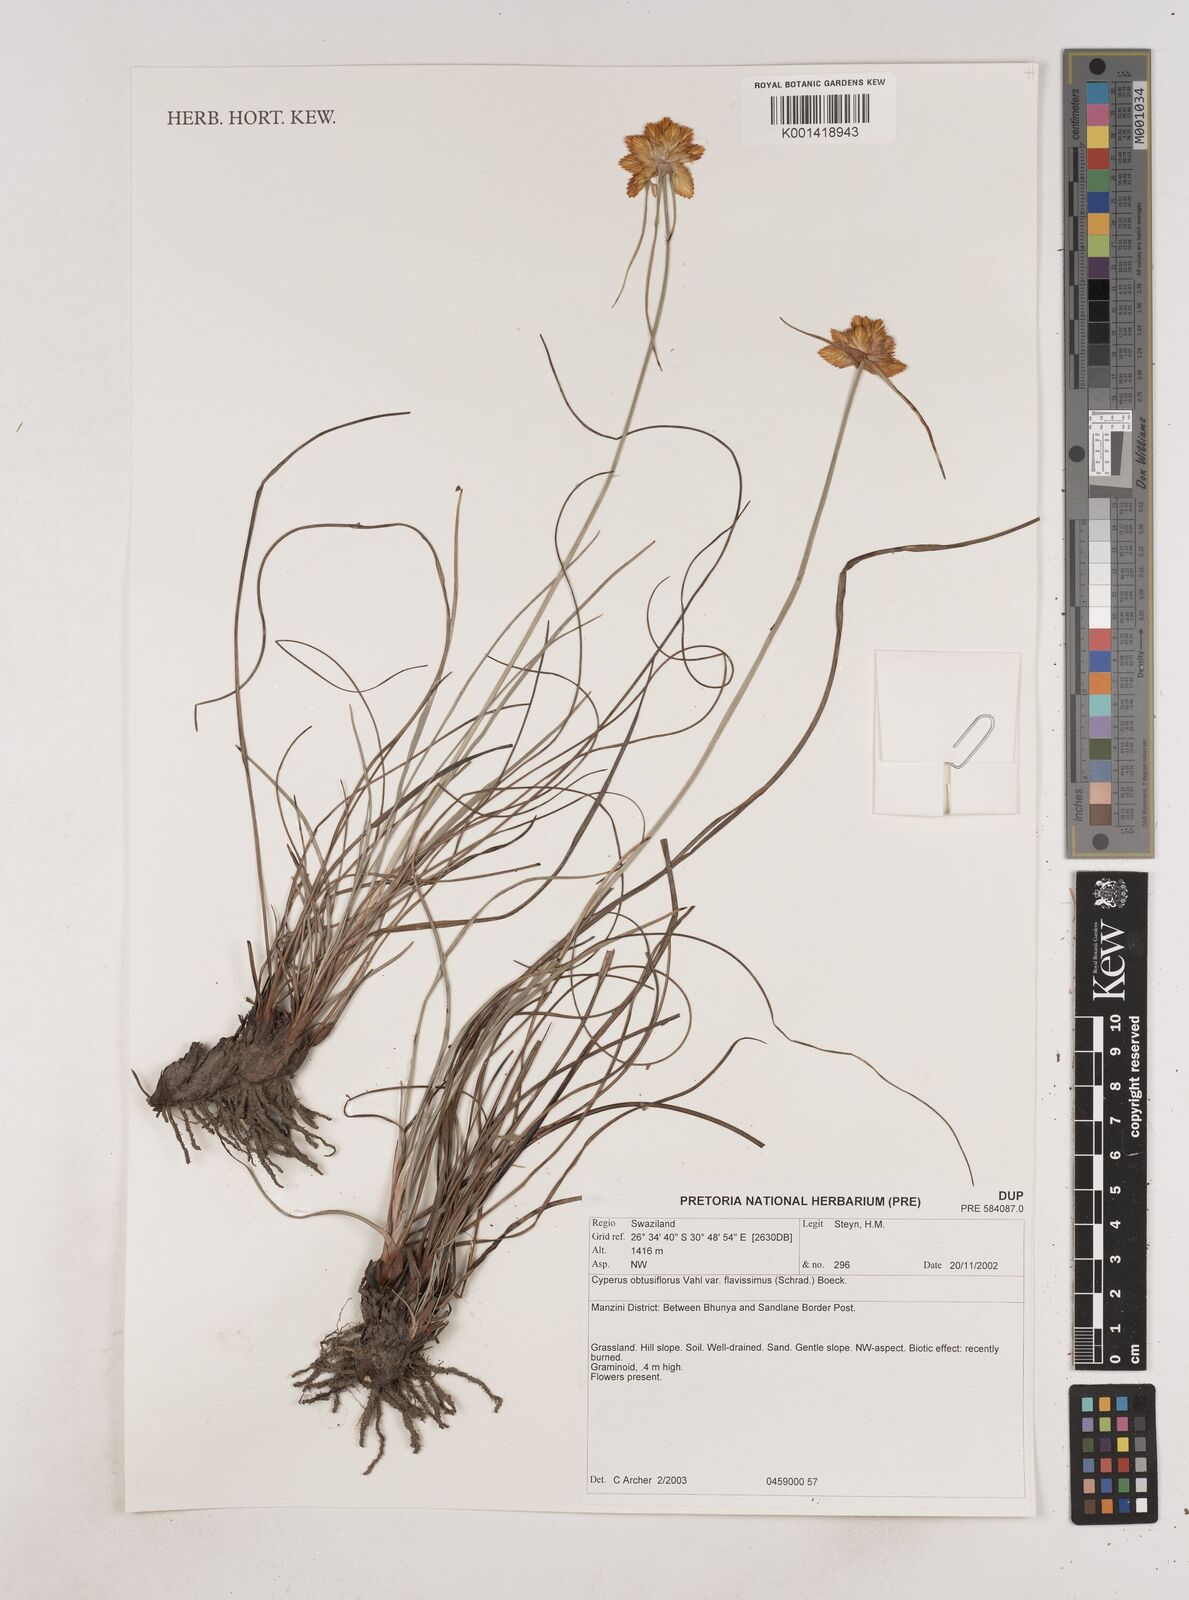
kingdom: Plantae
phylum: Tracheophyta
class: Liliopsida
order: Poales
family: Cyperaceae
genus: Cyperus
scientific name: Cyperus sphaerocephalus
